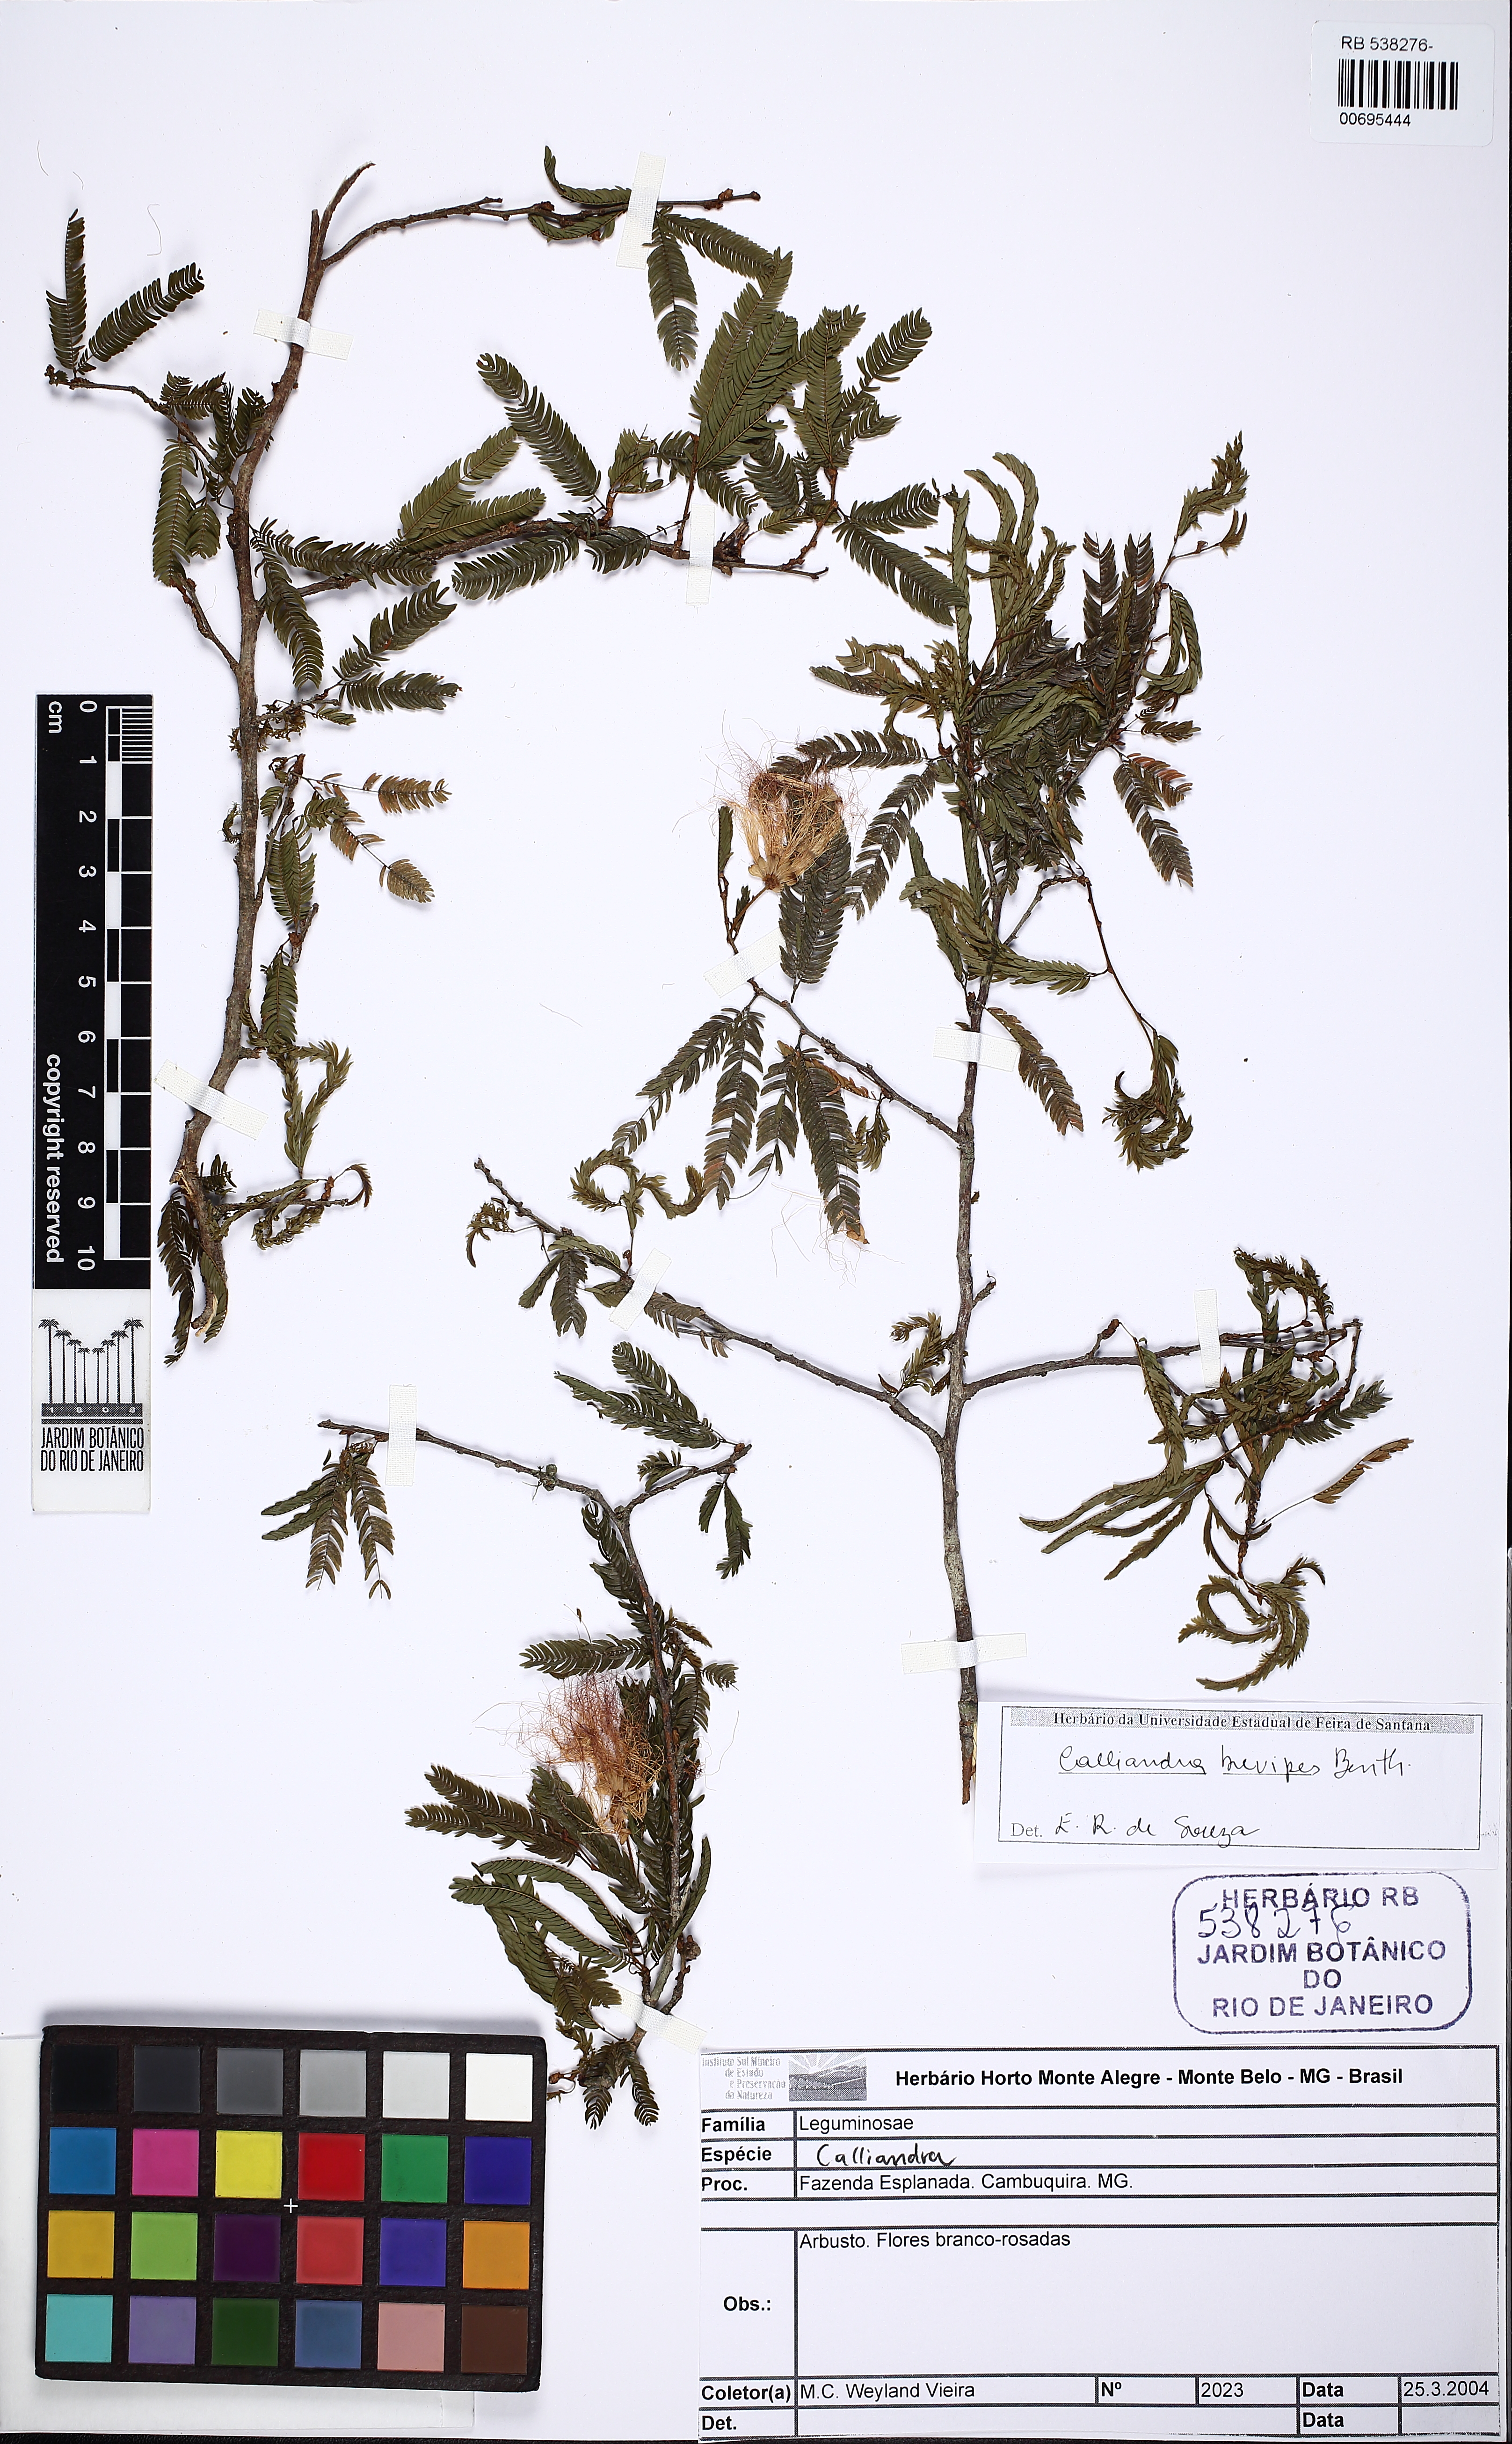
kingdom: Plantae
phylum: Tracheophyta
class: Magnoliopsida
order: Fabales
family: Fabaceae
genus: Calliandra
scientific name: Calliandra selloi
